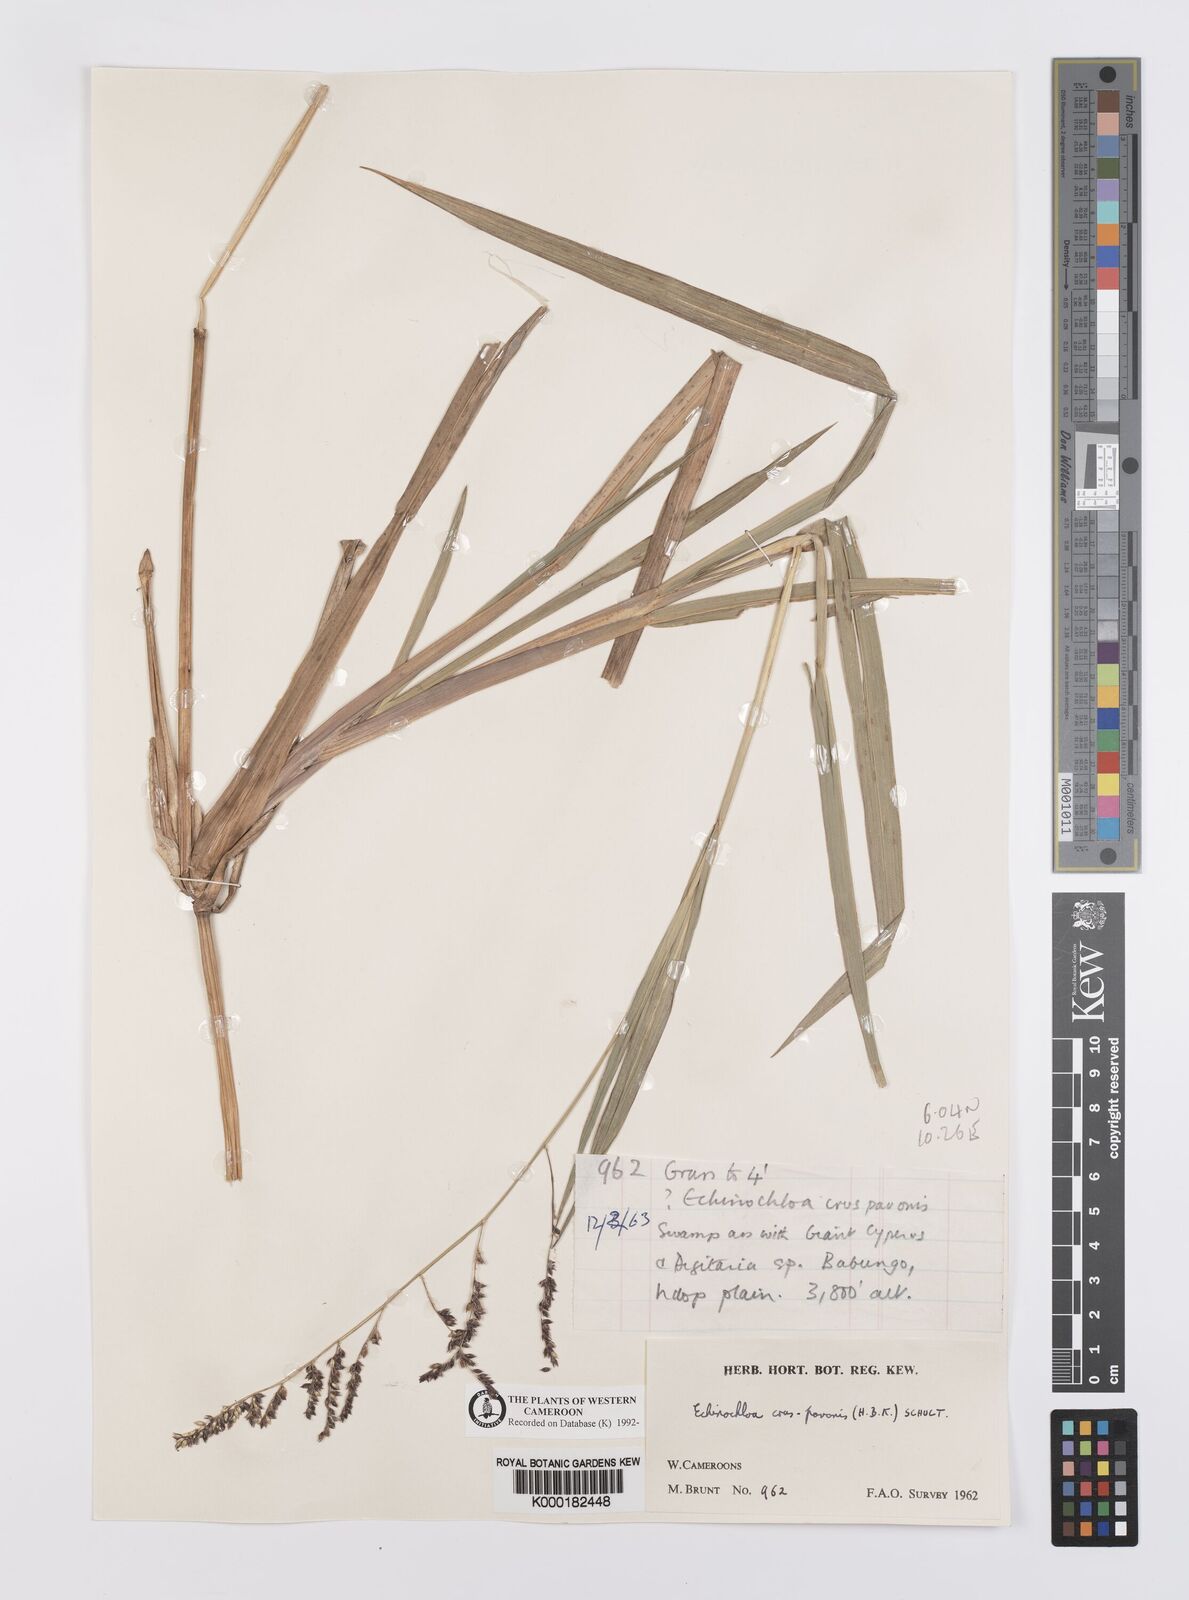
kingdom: Plantae
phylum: Tracheophyta
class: Liliopsida
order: Poales
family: Poaceae
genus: Echinochloa
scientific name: Echinochloa crus-pavonis
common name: Gulf cockspur grass
